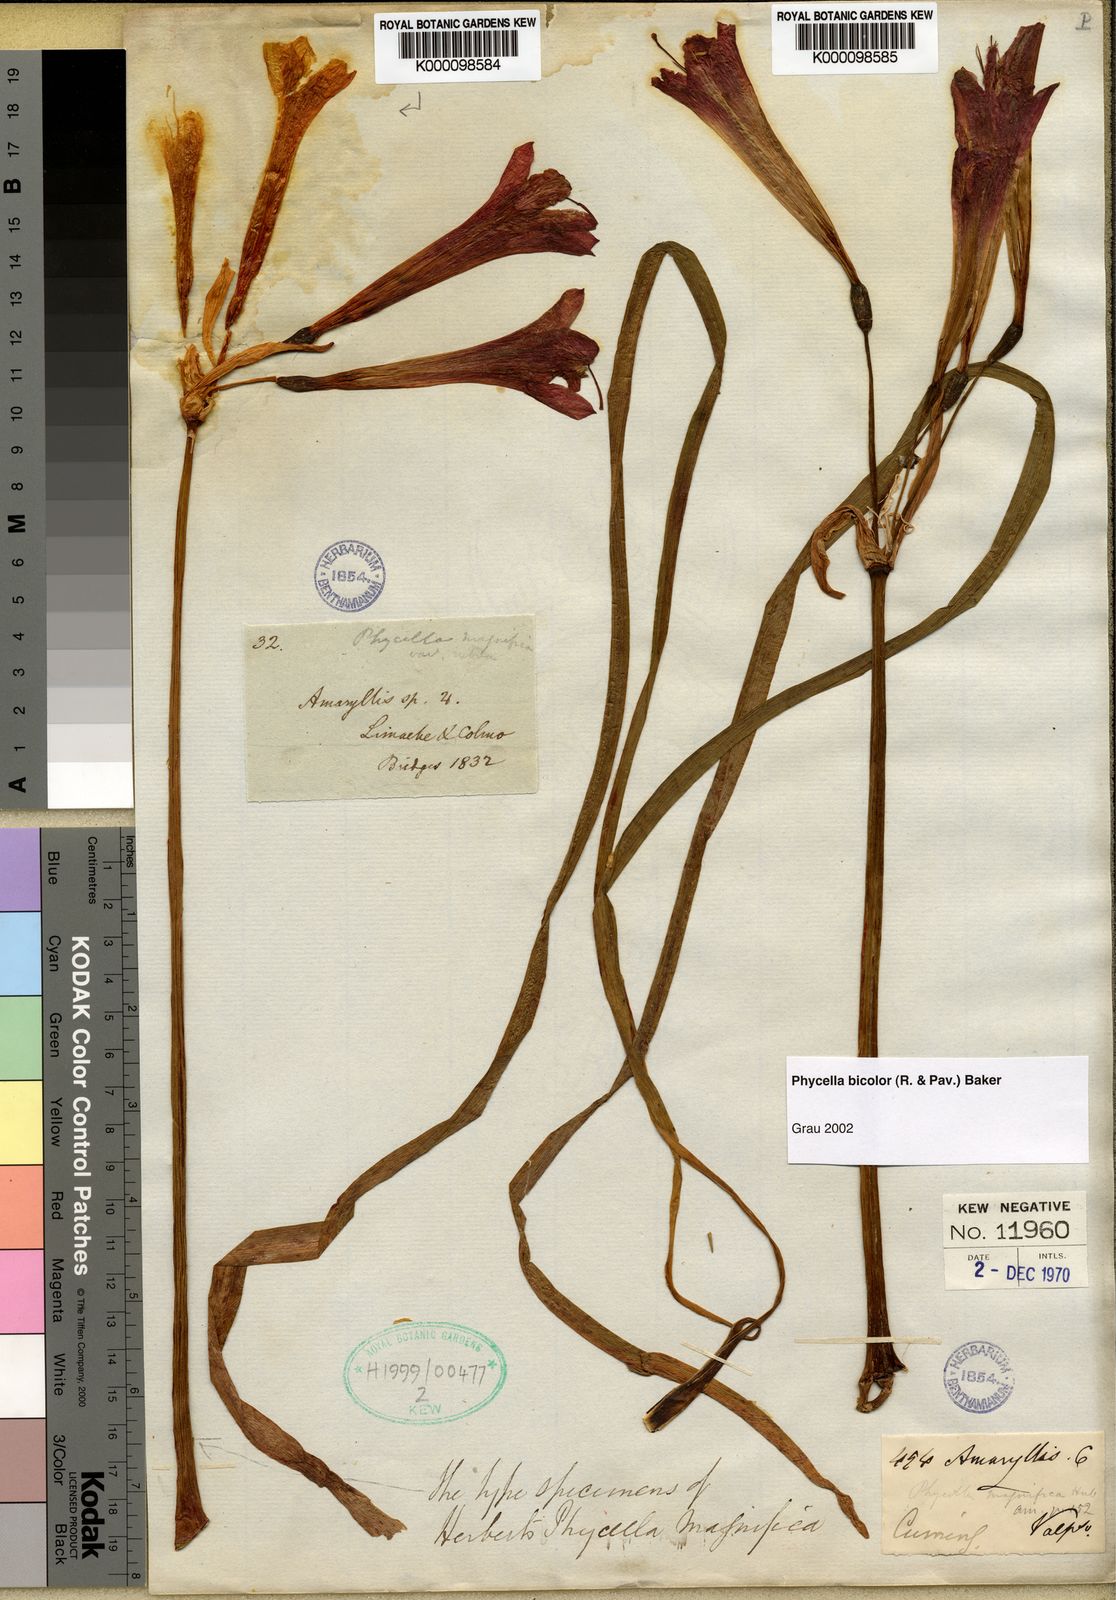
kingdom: Plantae
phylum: Tracheophyta
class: Liliopsida
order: Asparagales
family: Amaryllidaceae
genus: Phycella
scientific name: Phycella cyrtanthoides
